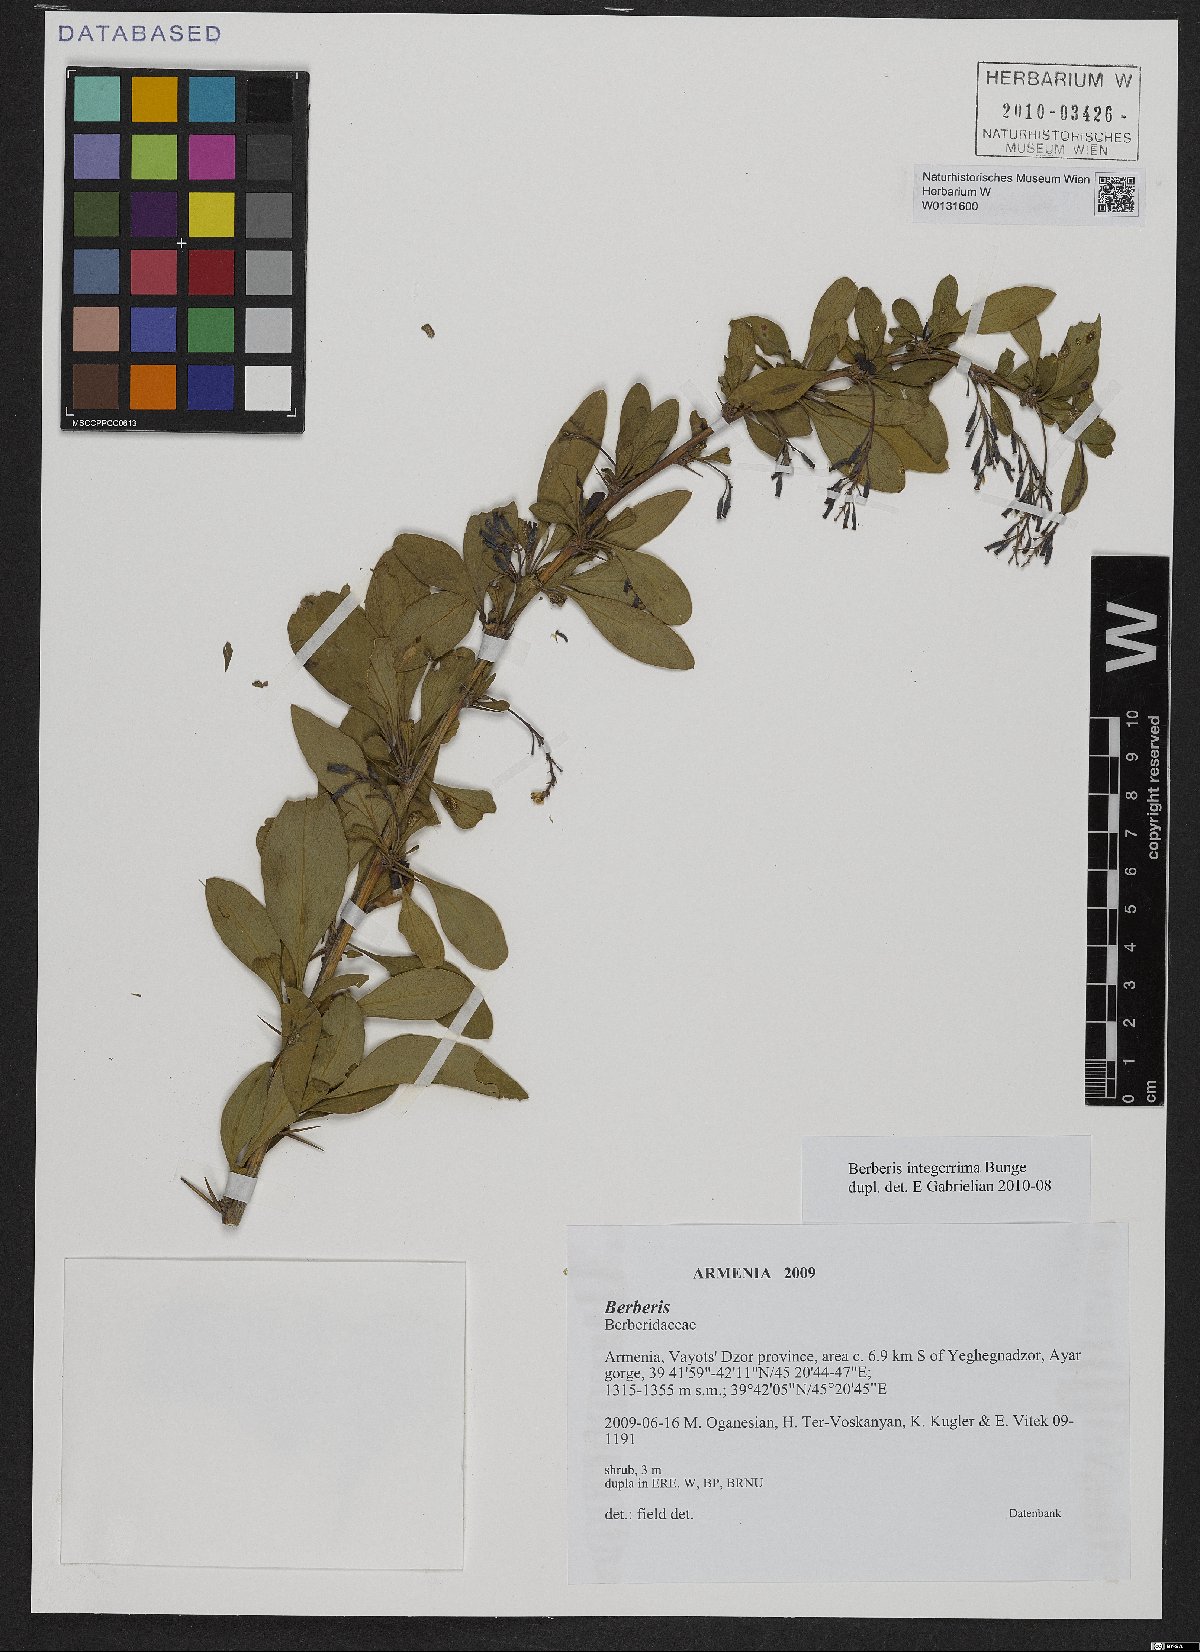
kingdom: Plantae
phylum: Tracheophyta
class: Magnoliopsida
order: Ranunculales
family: Berberidaceae
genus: Berberis
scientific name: Berberis integerrima
